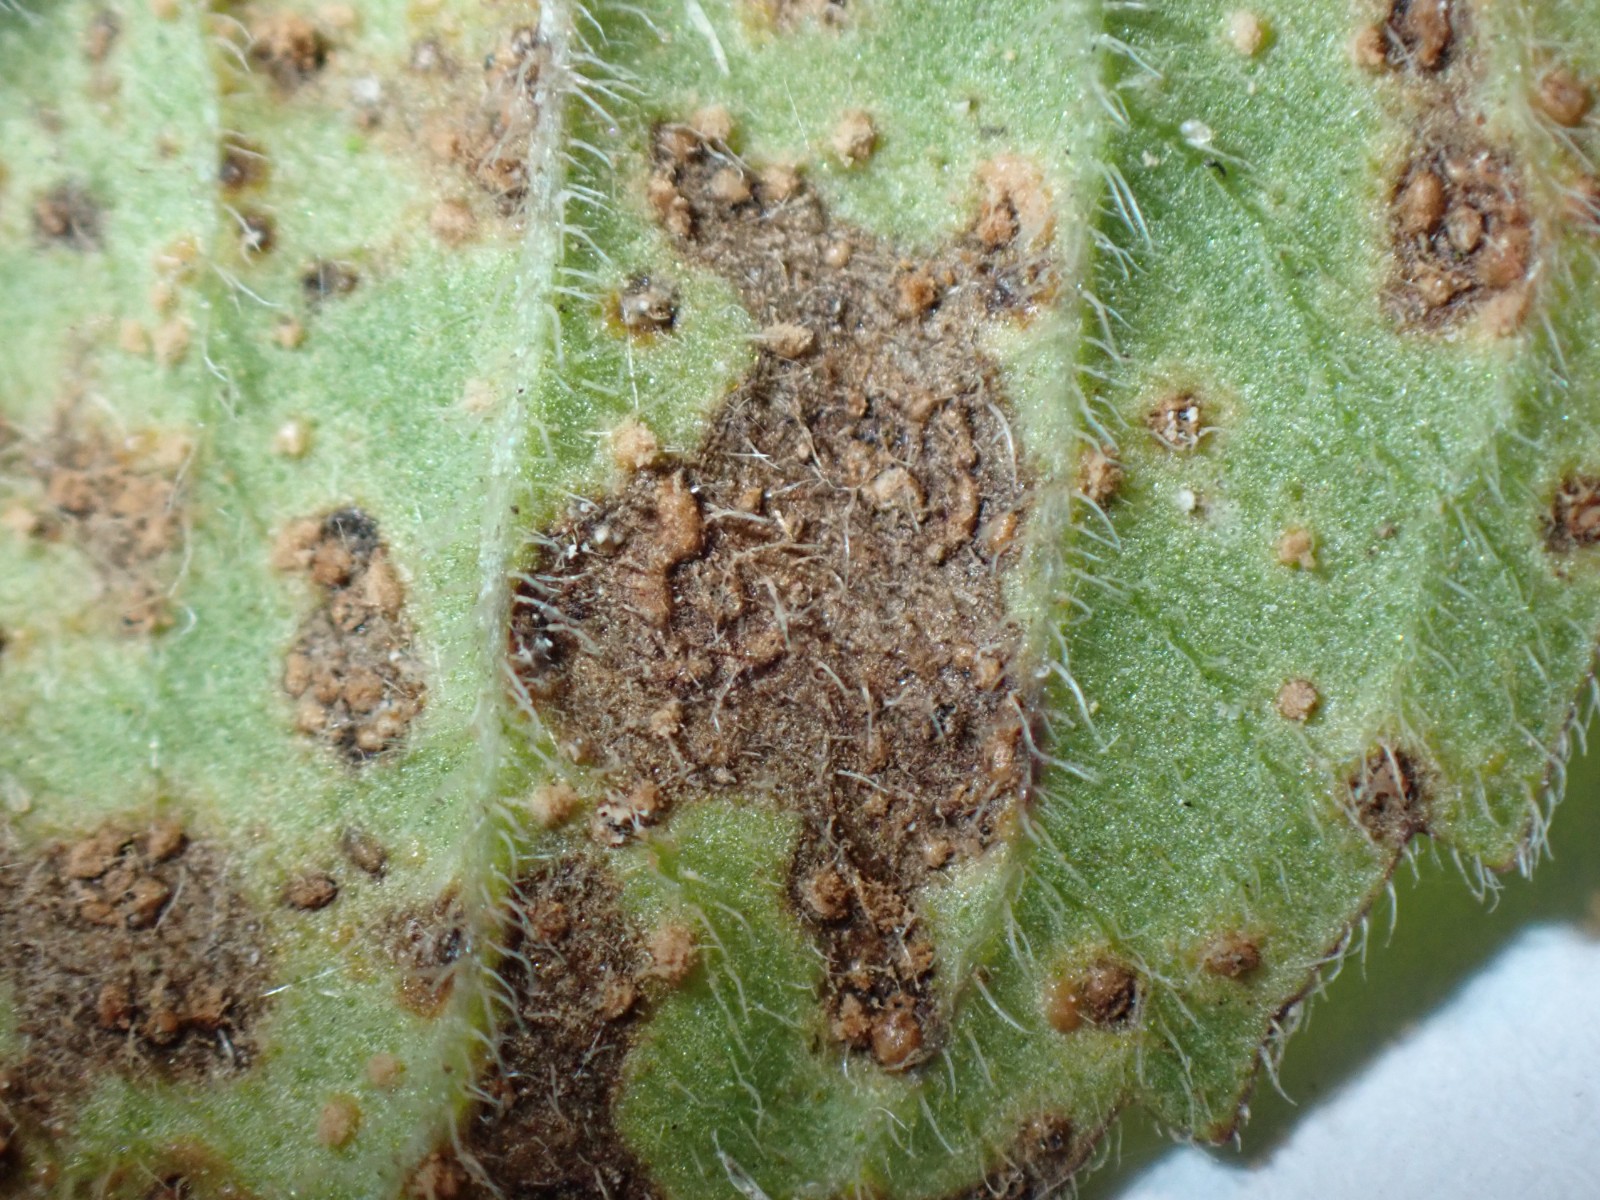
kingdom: Fungi
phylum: Basidiomycota
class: Pucciniomycetes
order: Pucciniales
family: Pucciniaceae
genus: Puccinia
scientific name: Puccinia menthae
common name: Mint rust
